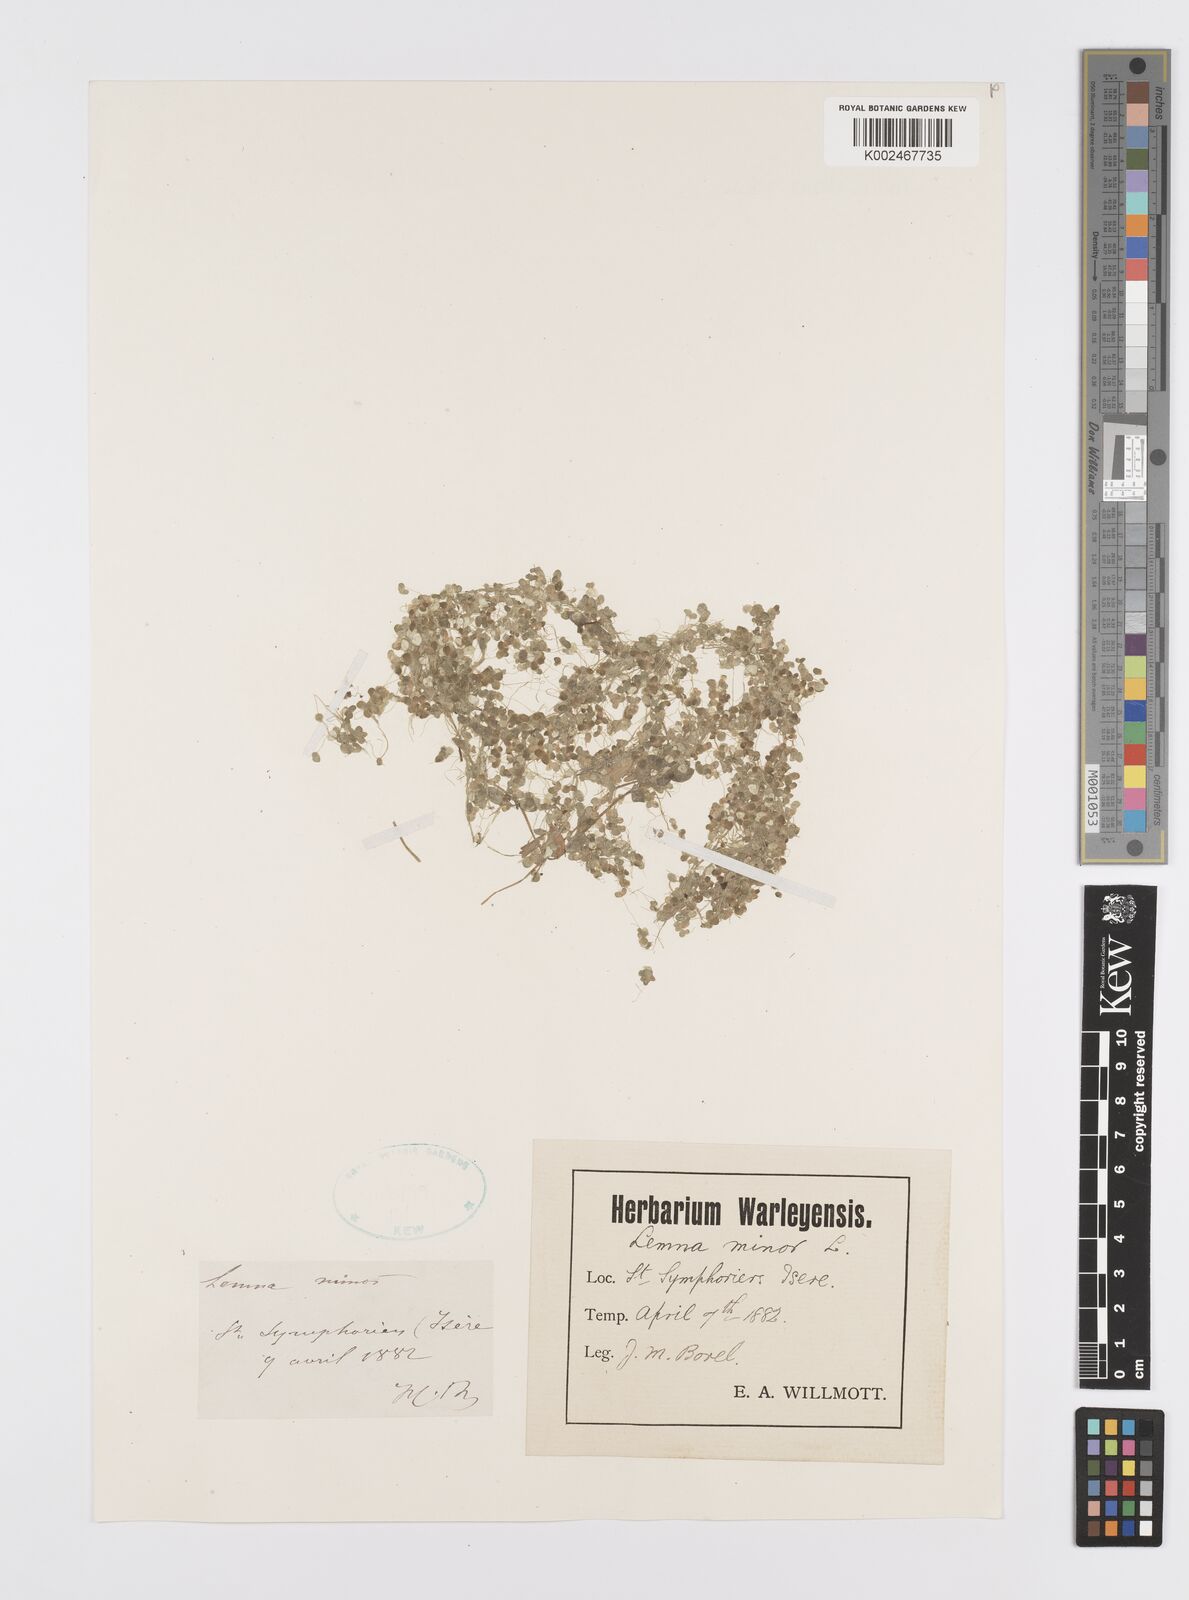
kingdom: Plantae
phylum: Tracheophyta
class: Liliopsida
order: Alismatales
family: Araceae
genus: Lemna
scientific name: Lemna minor
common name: Common duckweed
